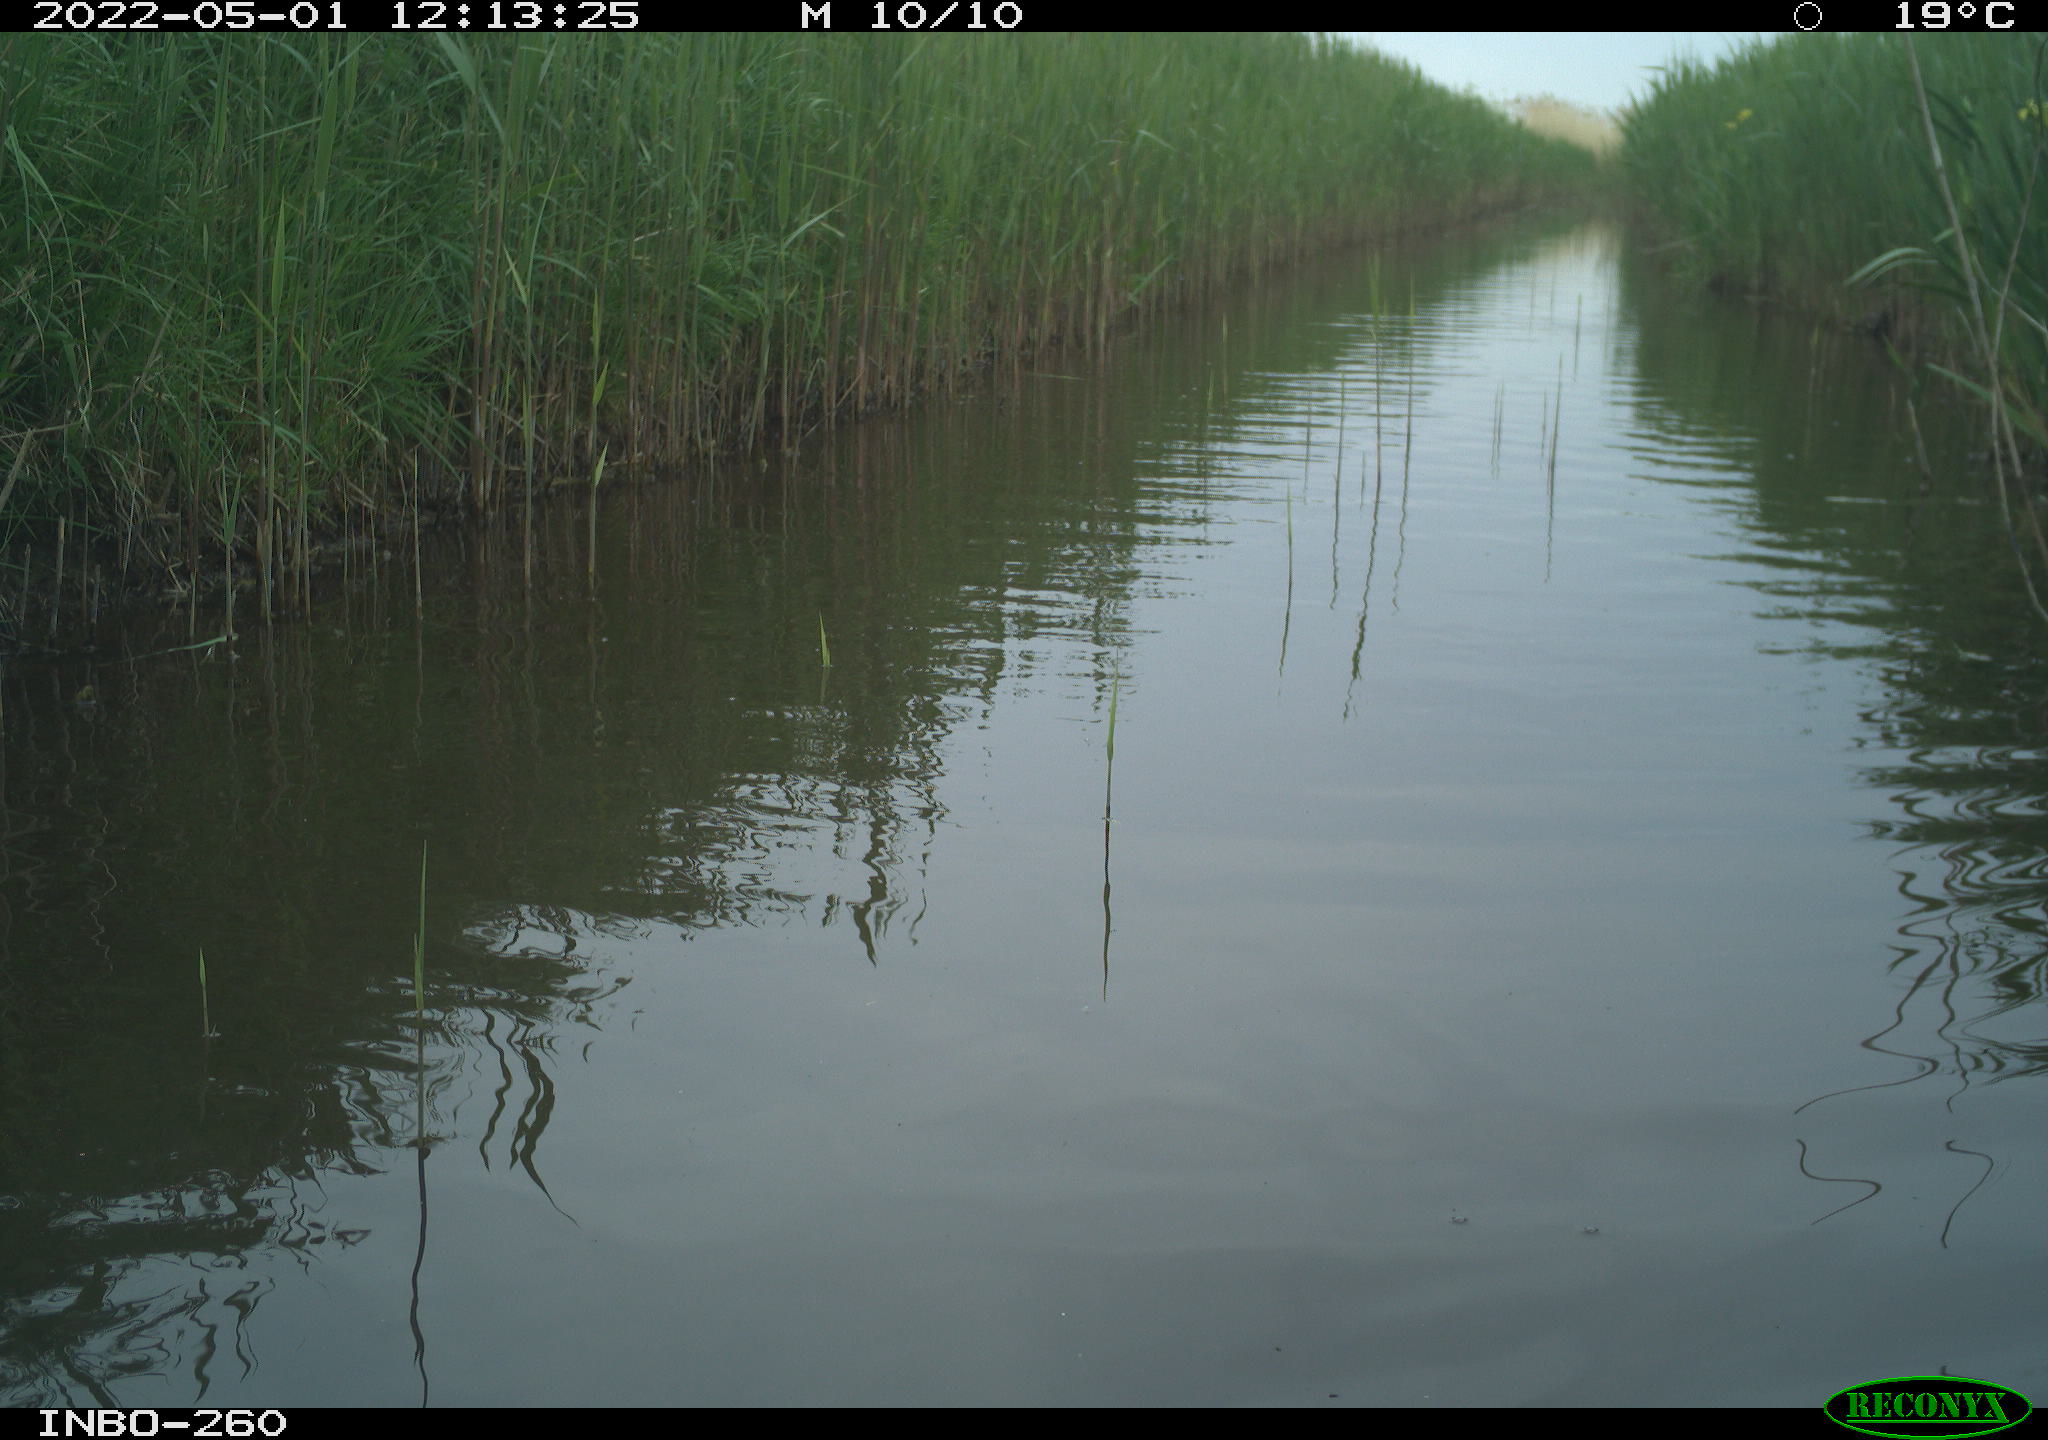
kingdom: Animalia
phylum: Chordata
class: Aves
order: Gruiformes
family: Rallidae
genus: Fulica
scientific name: Fulica atra
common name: Eurasian coot
